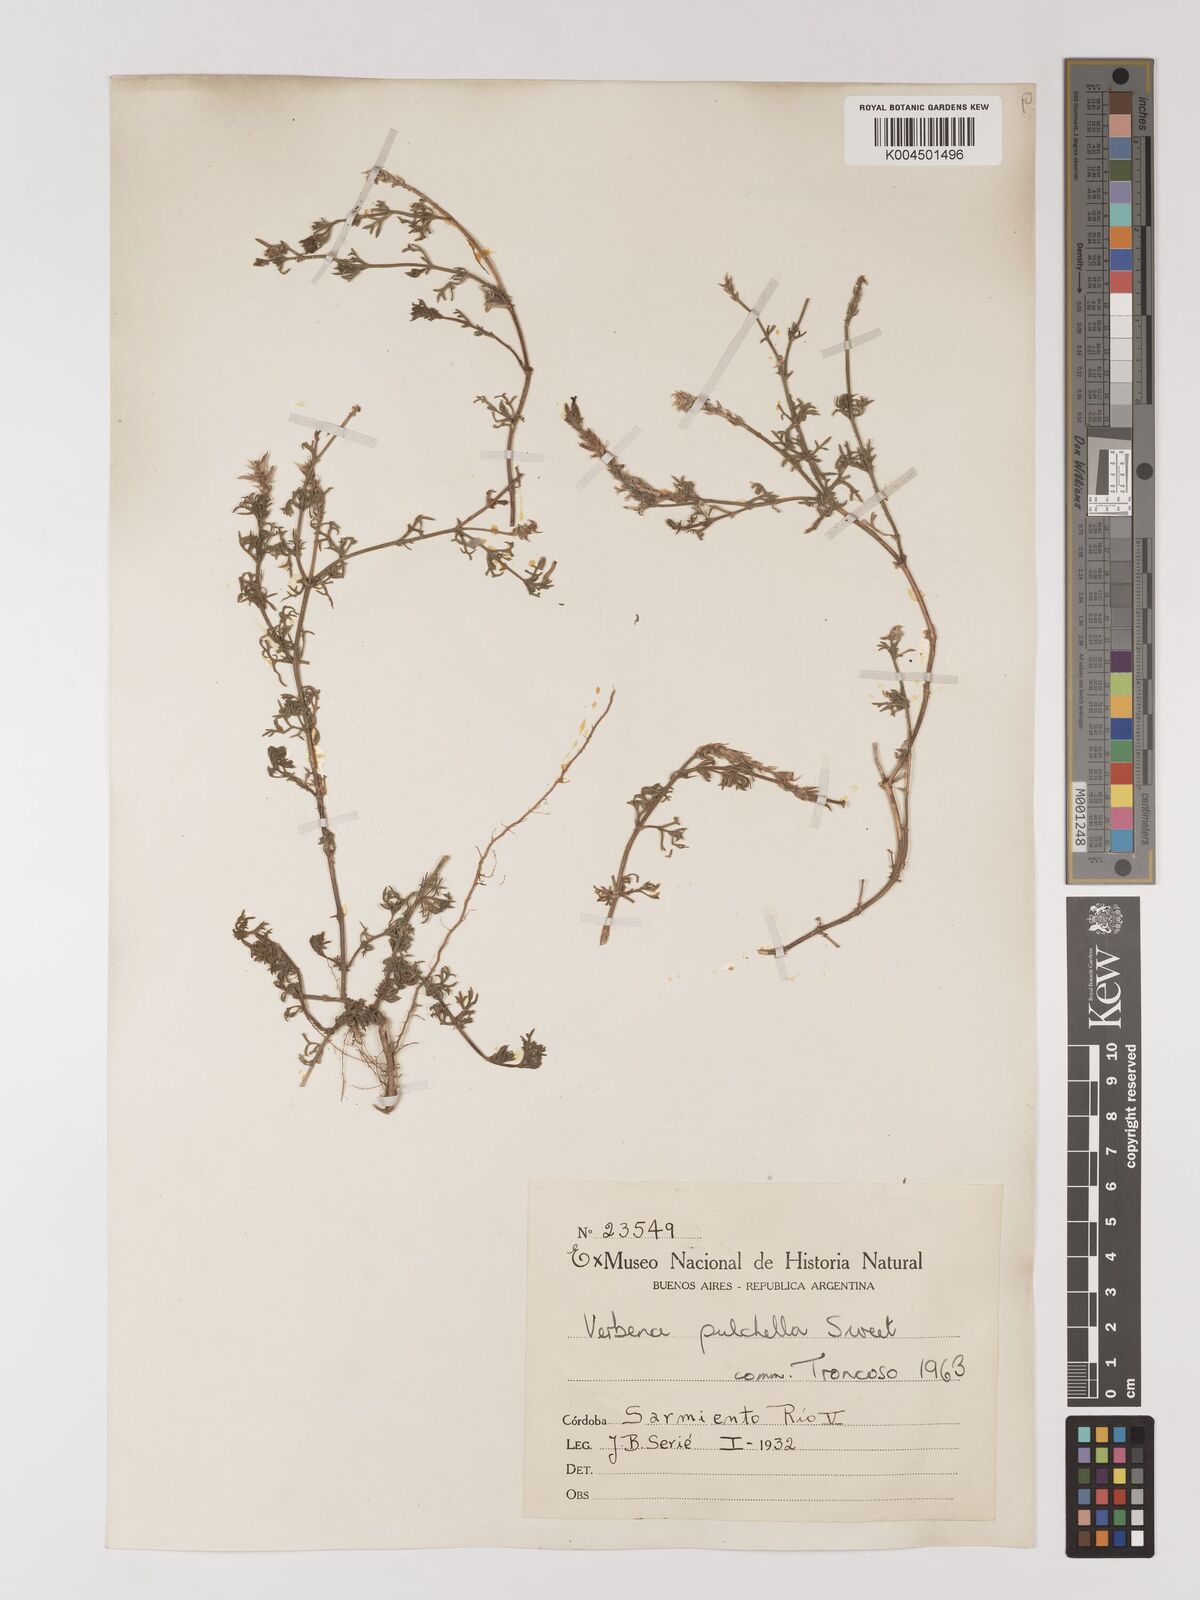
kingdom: Plantae
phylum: Tracheophyta
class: Magnoliopsida
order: Lamiales
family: Verbenaceae
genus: Verbena
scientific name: Verbena tenera
